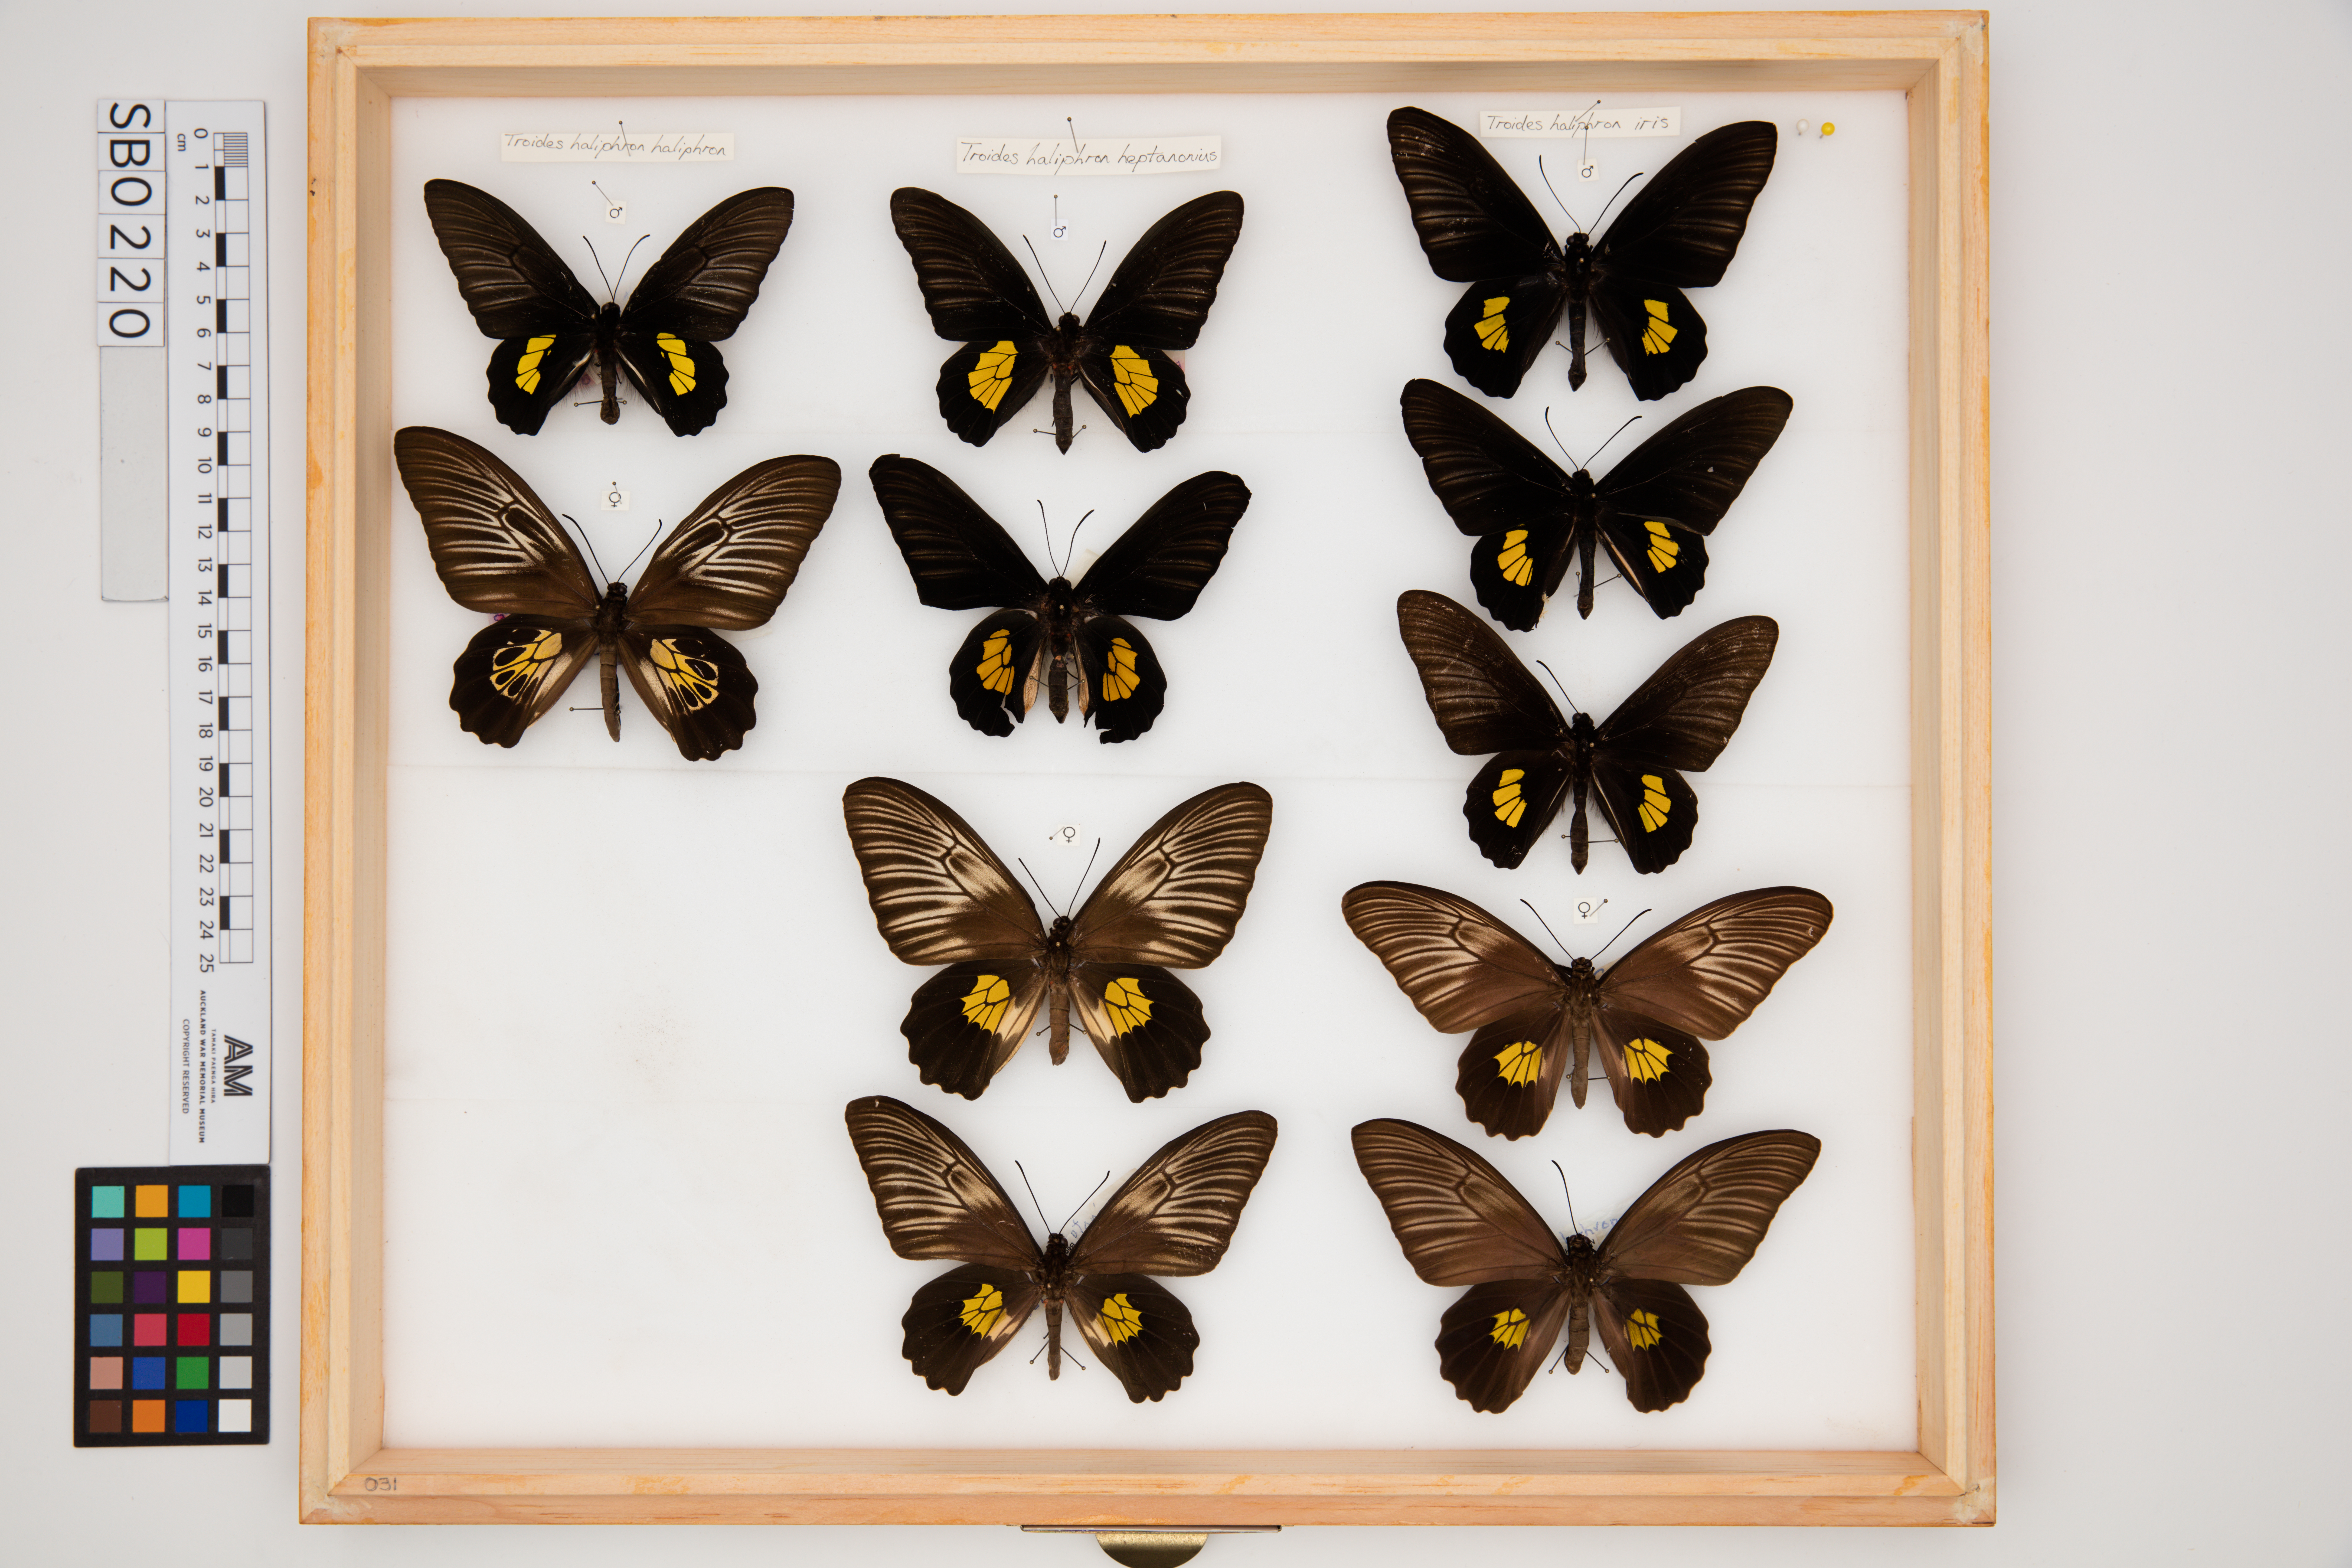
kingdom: Animalia
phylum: Arthropoda
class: Insecta
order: Lepidoptera
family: Papilionidae
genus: Troides
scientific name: Troides haliphron
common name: Haliphron birdwing
